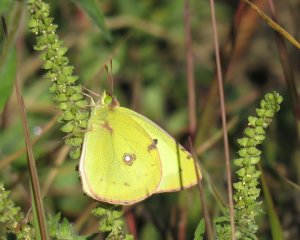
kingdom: Animalia
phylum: Arthropoda
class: Insecta
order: Lepidoptera
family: Pieridae
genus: Colias
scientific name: Colias philodice
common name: Clouded Sulphur
